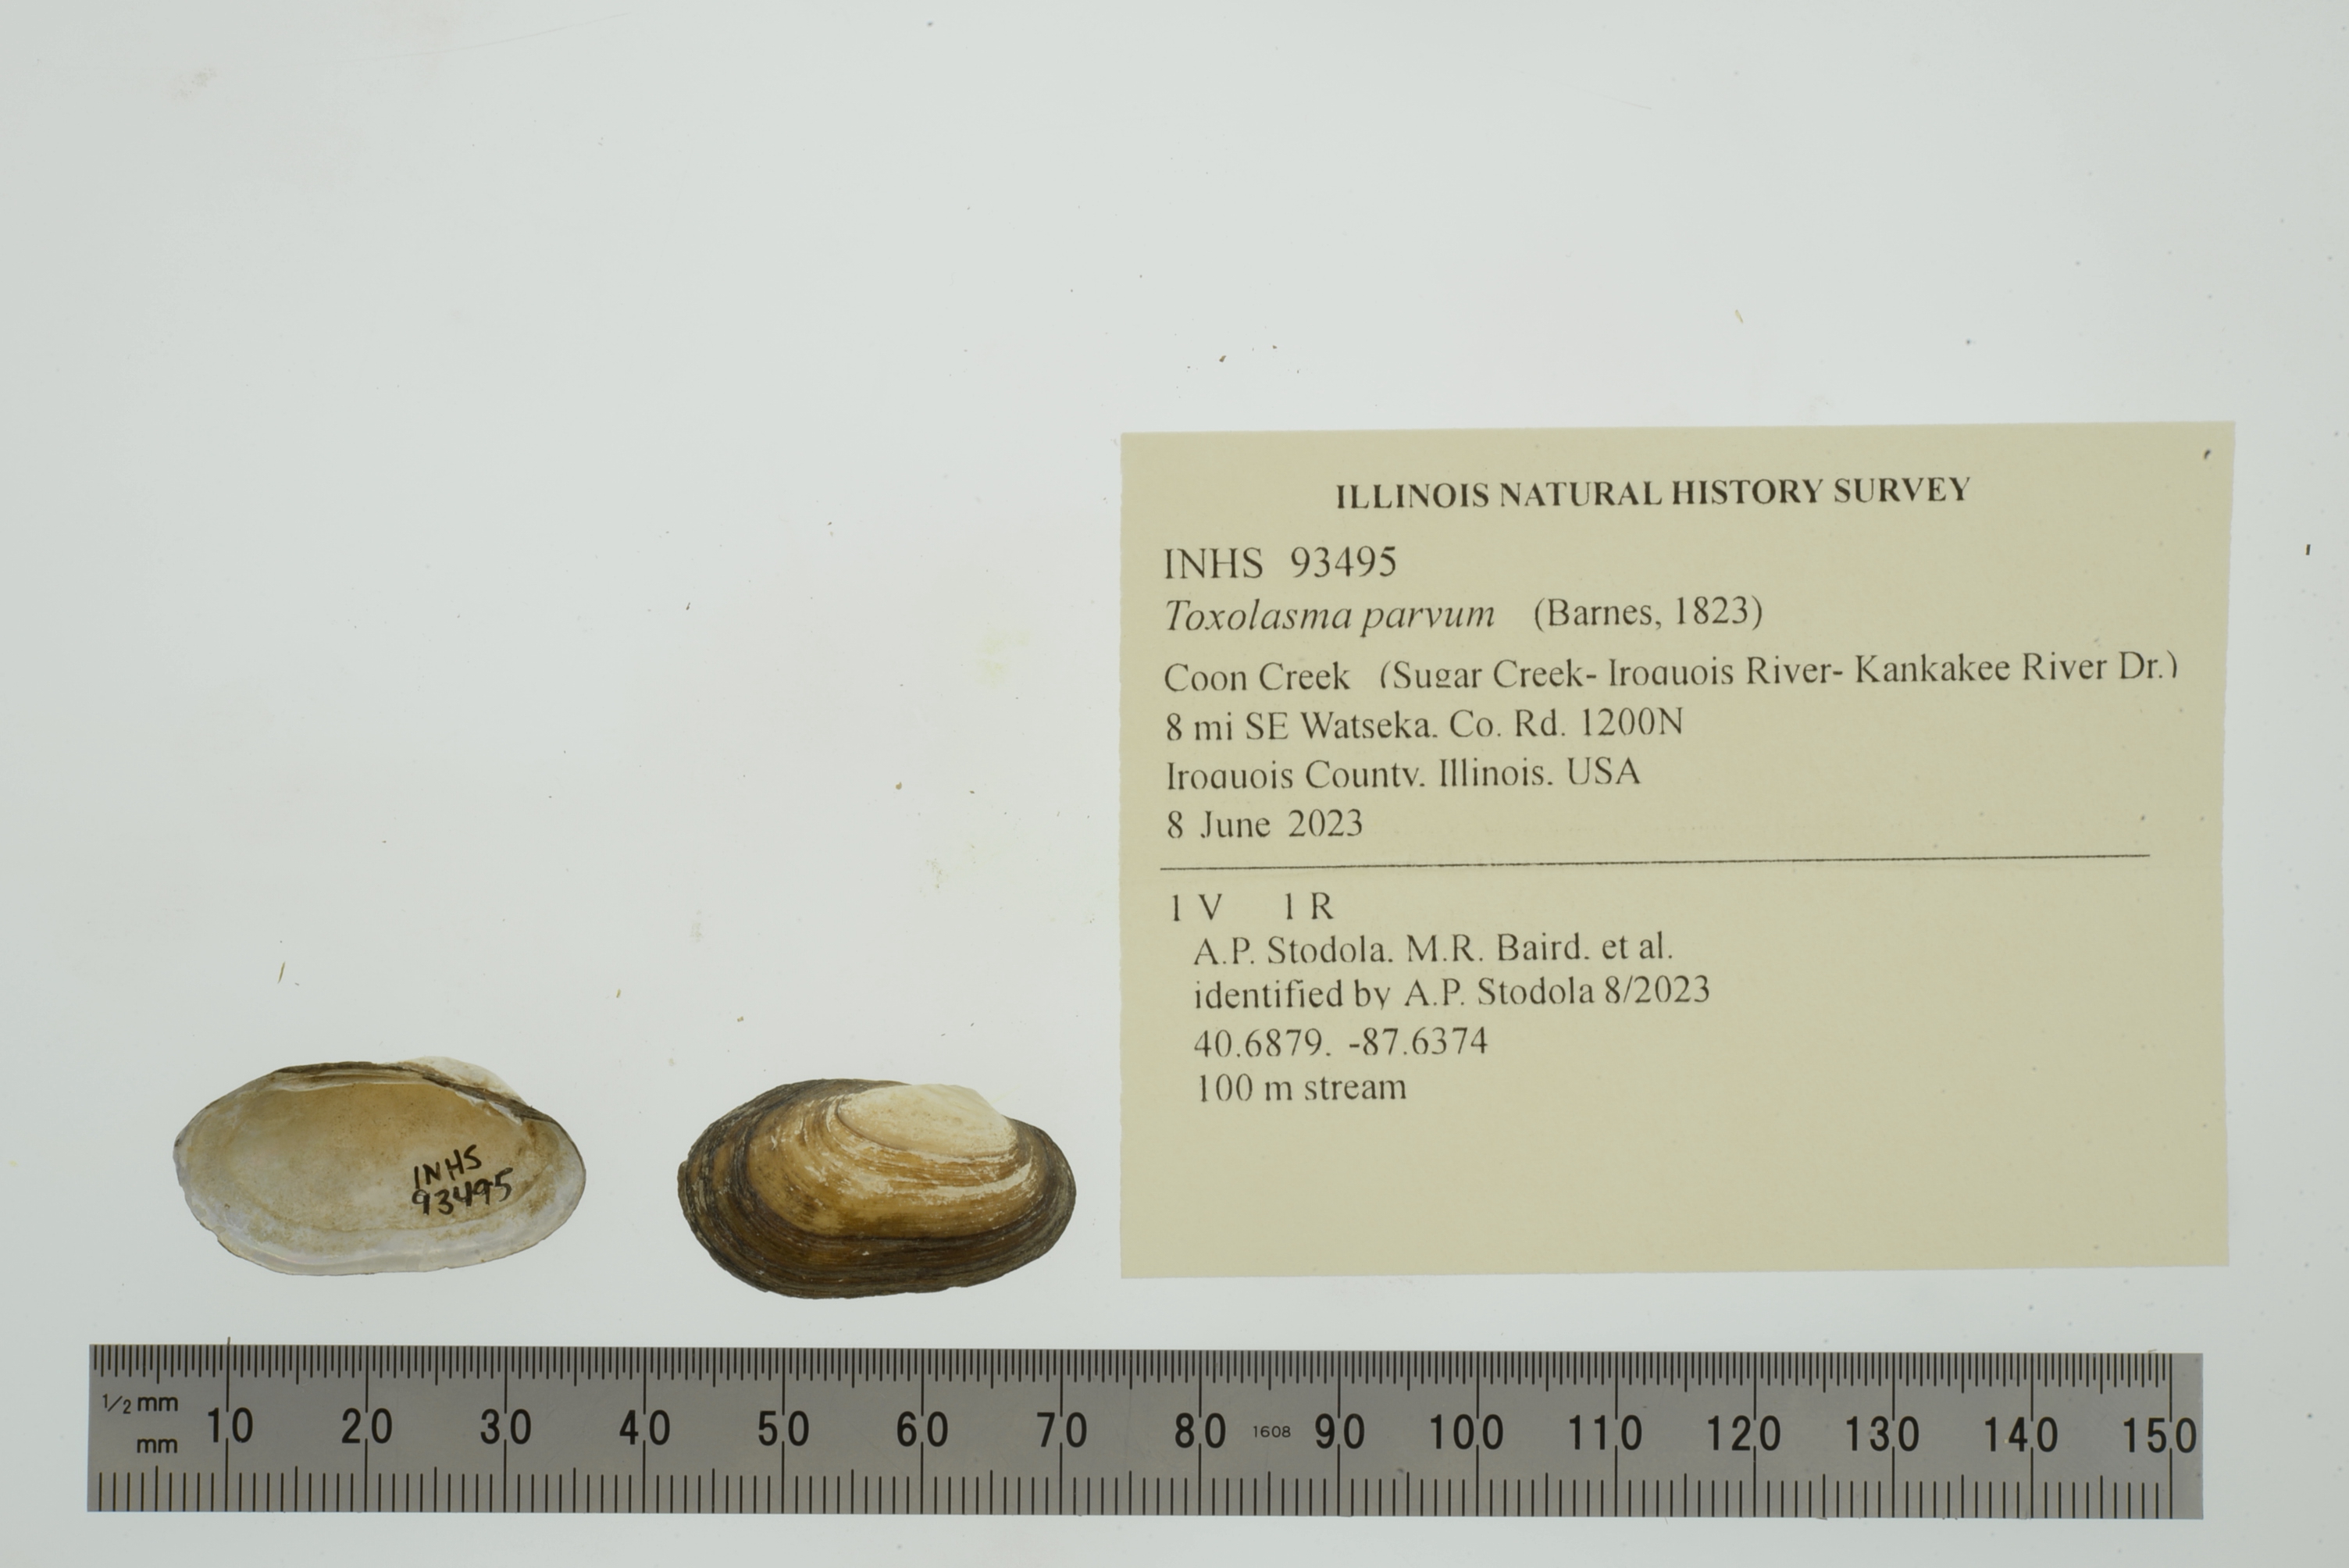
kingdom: Animalia
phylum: Mollusca
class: Bivalvia
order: Unionida
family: Unionidae
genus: Toxolasma
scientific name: Toxolasma parvum
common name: Lilliput
